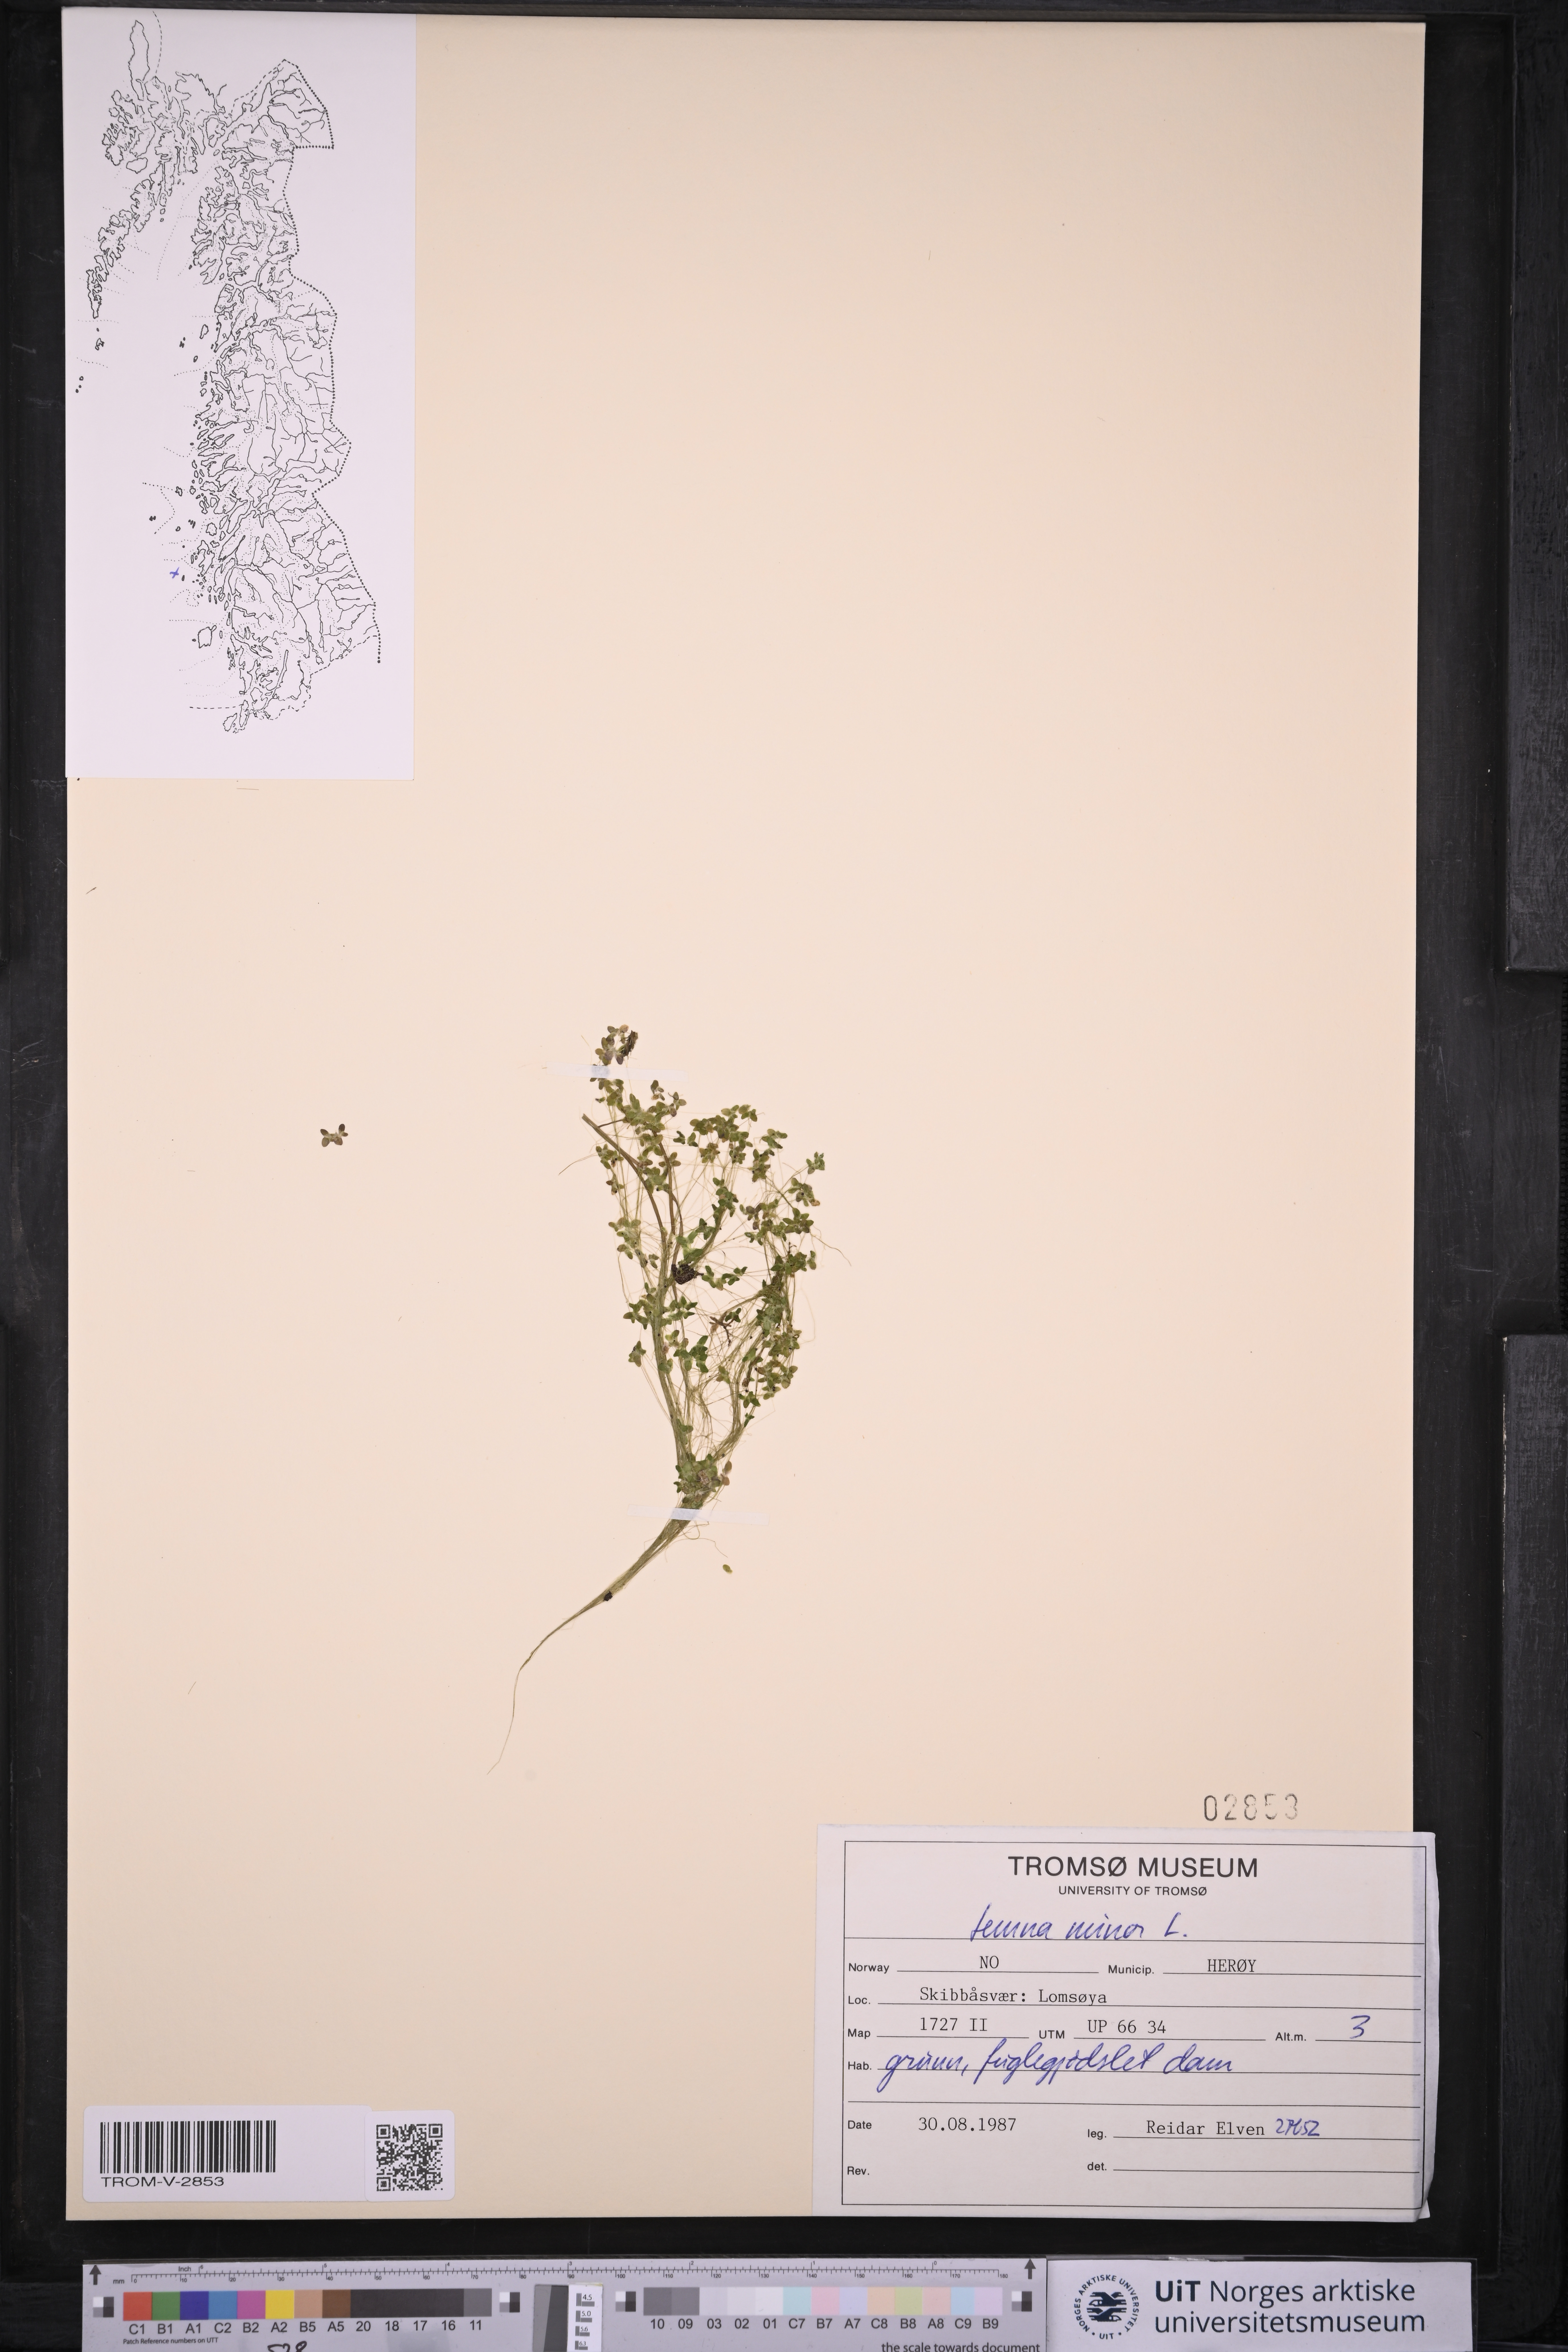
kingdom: Plantae
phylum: Tracheophyta
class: Liliopsida
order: Alismatales
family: Araceae
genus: Lemna
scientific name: Lemna minor
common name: Common duckweed
